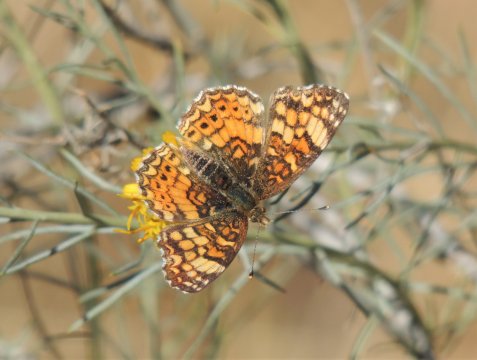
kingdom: Animalia
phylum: Arthropoda
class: Insecta
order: Lepidoptera
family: Nymphalidae
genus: Eresia
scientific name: Eresia aveyrona
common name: Mylitta Crescent
